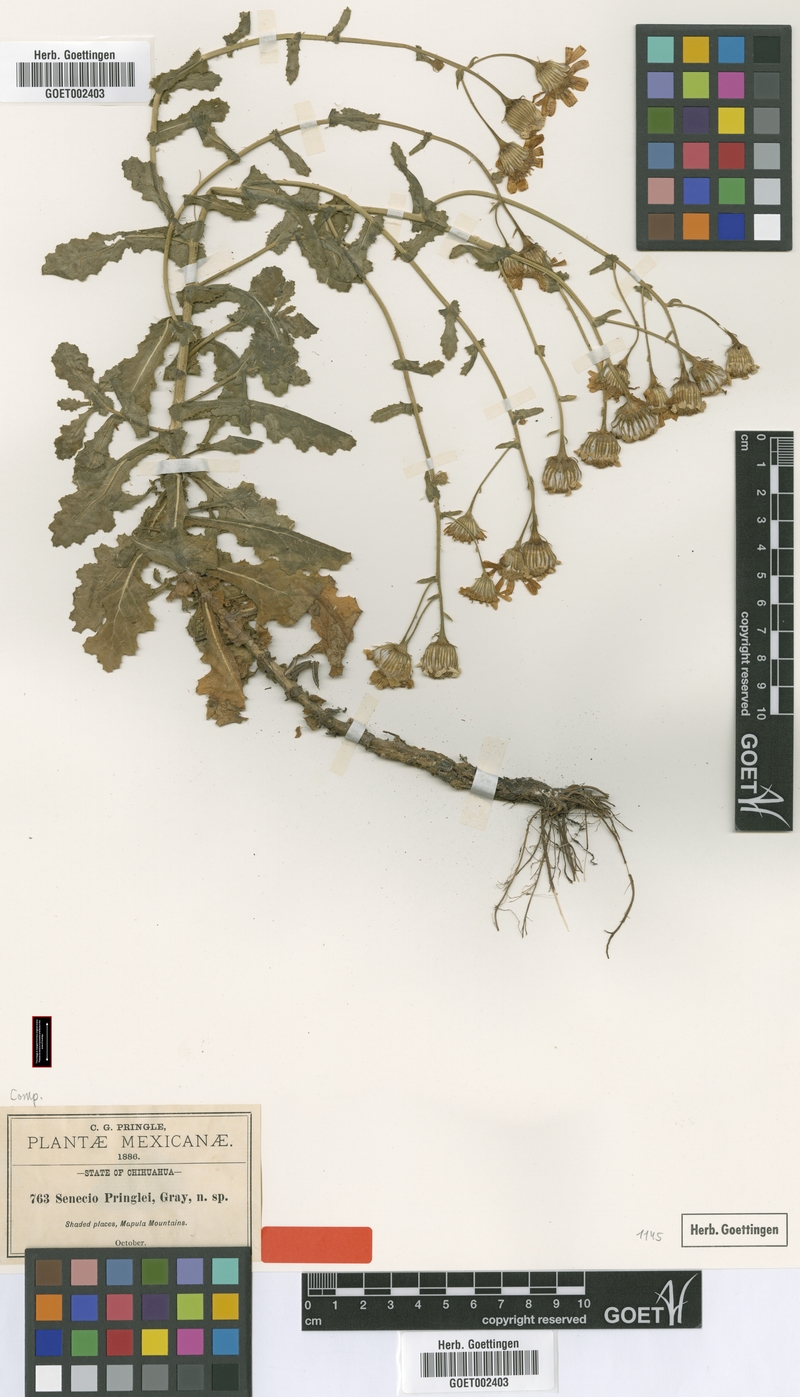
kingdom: Plantae
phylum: Tracheophyta
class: Magnoliopsida
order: Asterales
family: Asteraceae
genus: Senecio
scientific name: Senecio pringlei
